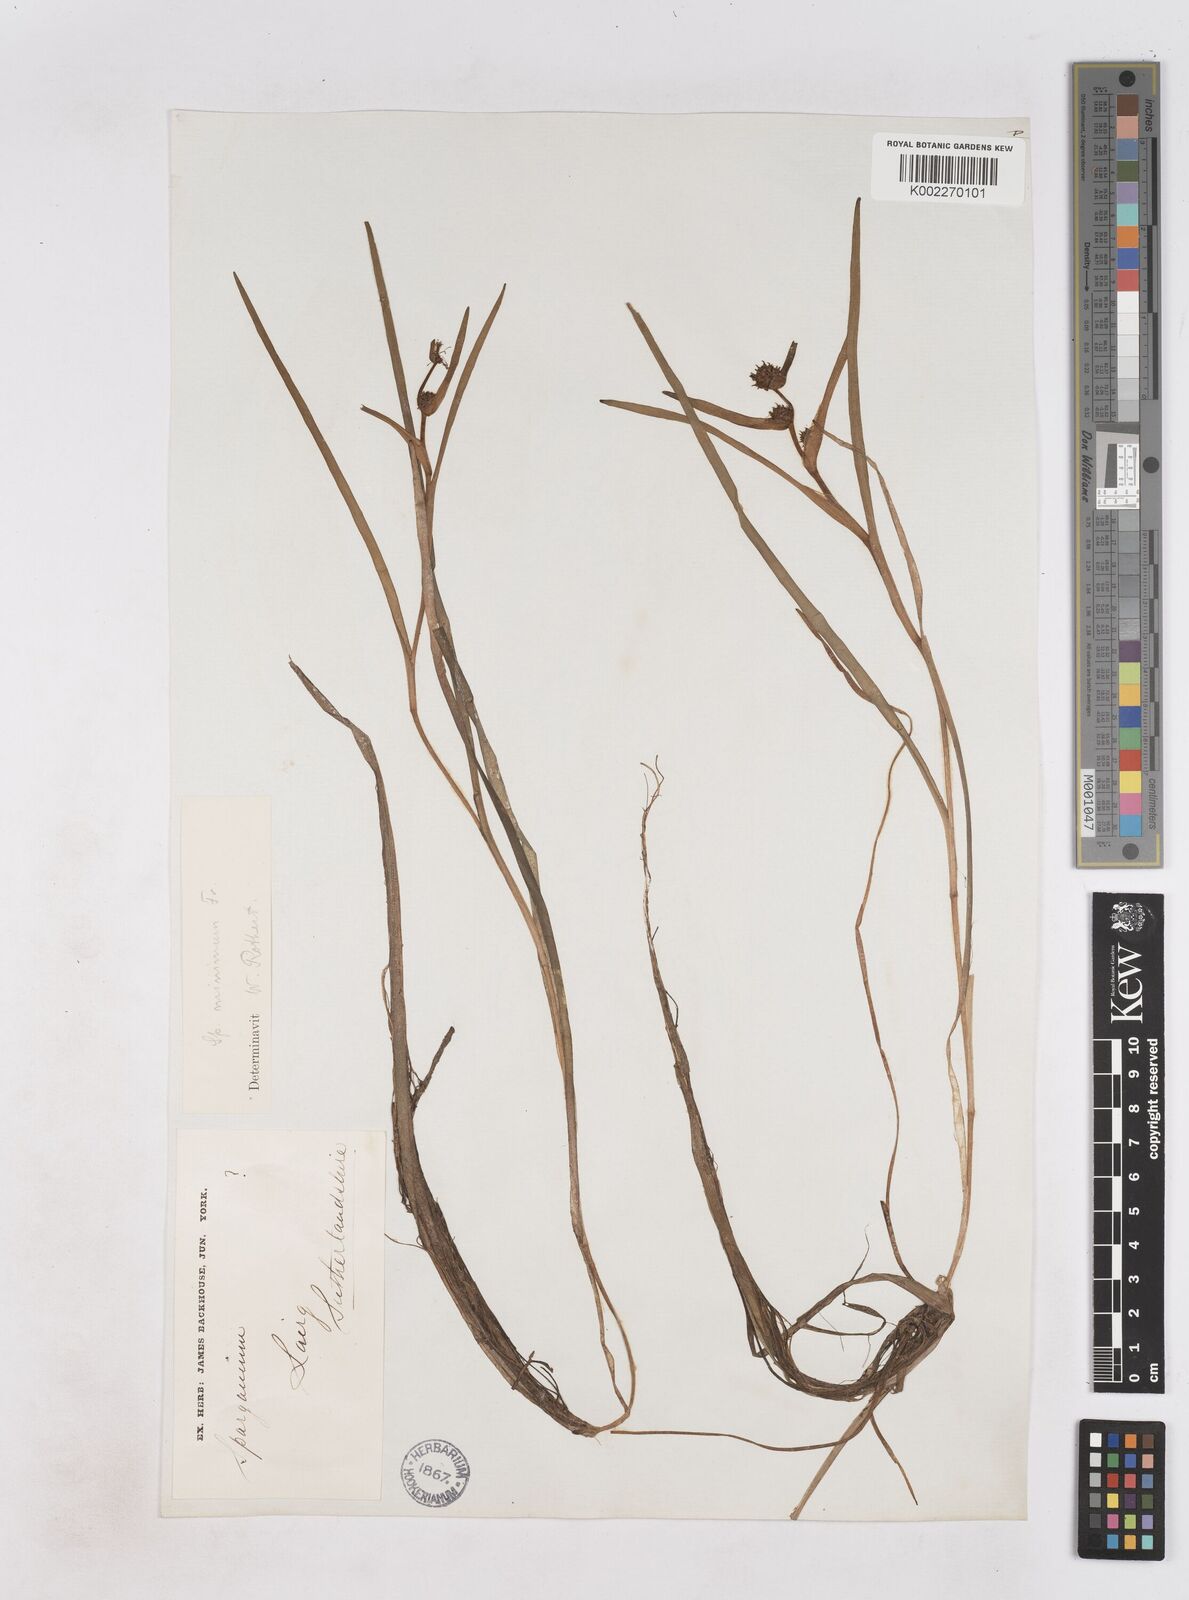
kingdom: Plantae
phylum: Tracheophyta
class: Liliopsida
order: Poales
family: Typhaceae
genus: Sparganium
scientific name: Sparganium natans
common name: Least bur-reed
